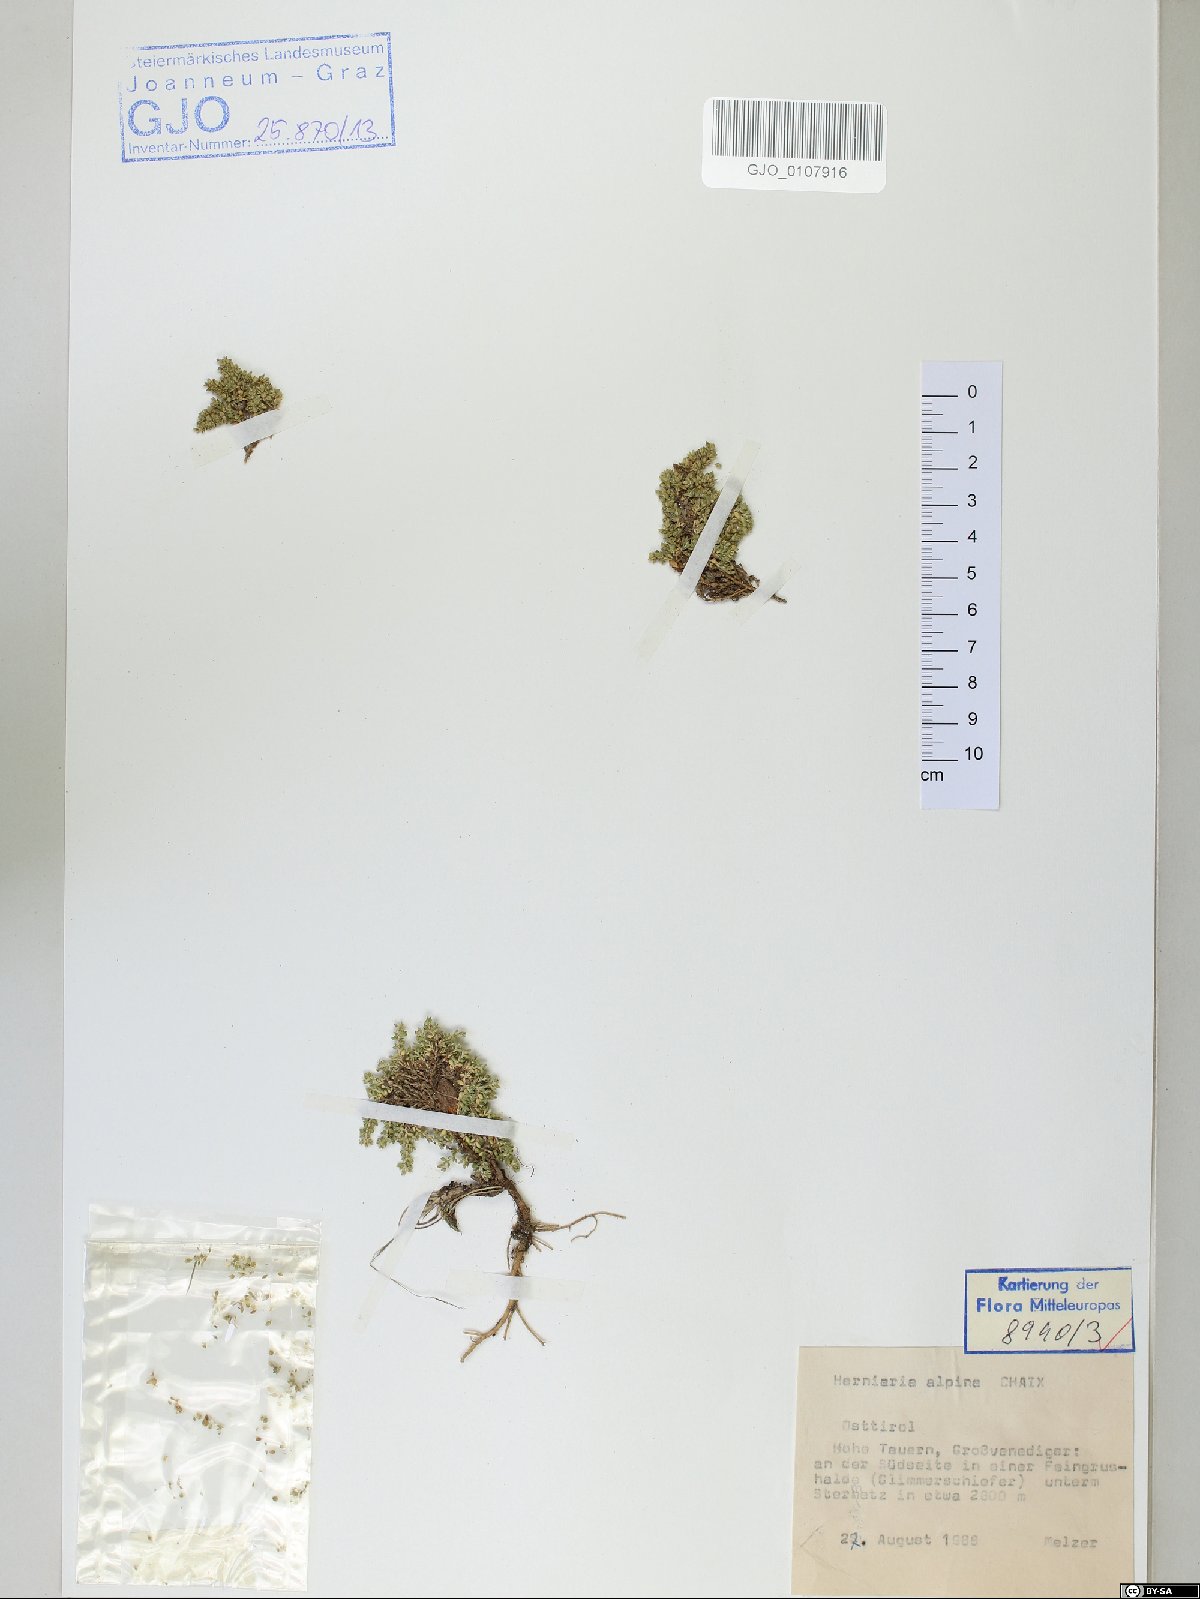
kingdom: Plantae
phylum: Tracheophyta
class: Magnoliopsida
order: Caryophyllales
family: Caryophyllaceae
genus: Herniaria
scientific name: Herniaria alpina
